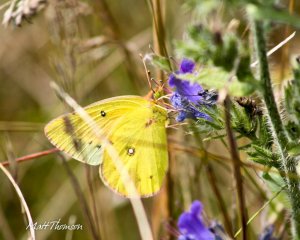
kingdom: Animalia
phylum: Arthropoda
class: Insecta
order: Lepidoptera
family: Pieridae
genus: Colias
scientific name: Colias eurytheme
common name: Orange Sulphur
